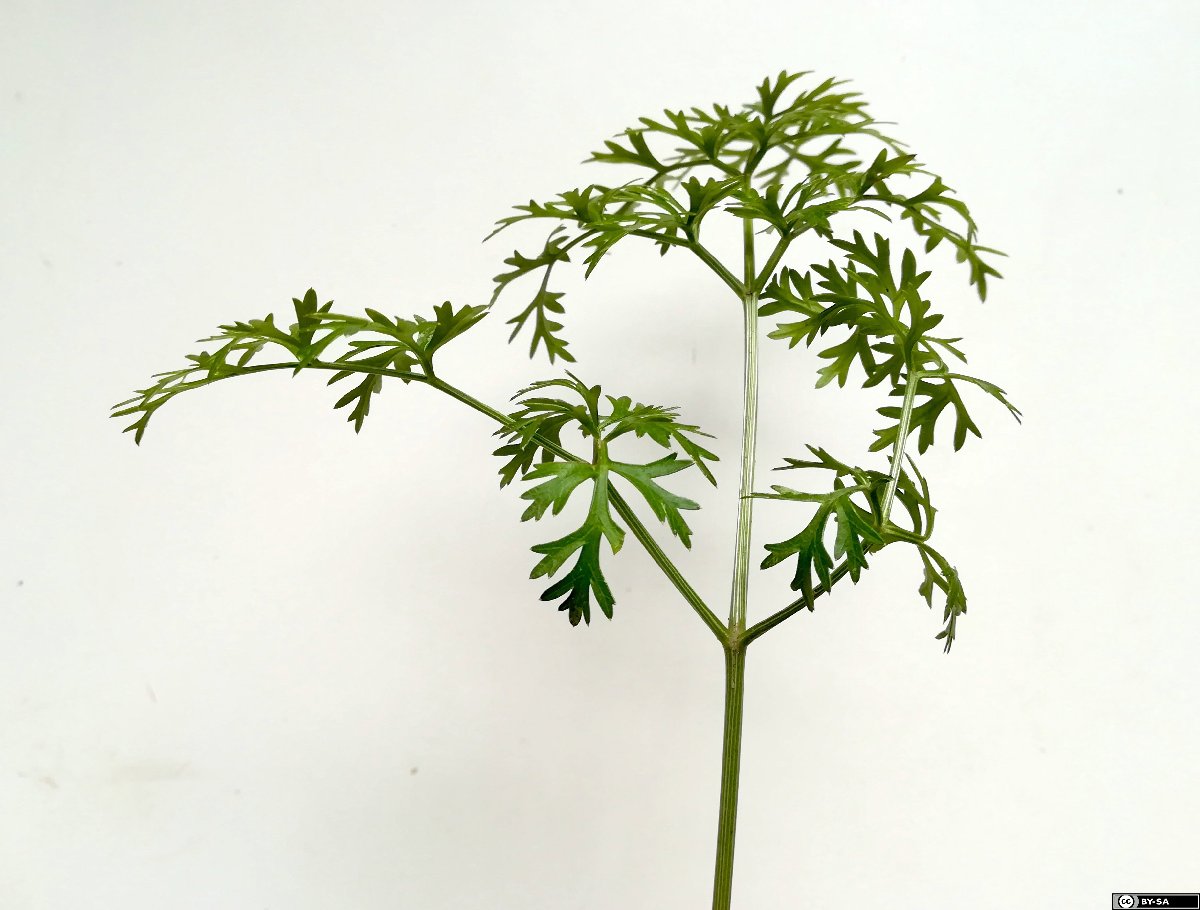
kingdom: Plantae
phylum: Tracheophyta
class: Magnoliopsida
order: Apiales
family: Apiaceae
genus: Peucedanum
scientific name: Peucedanum austriacum
